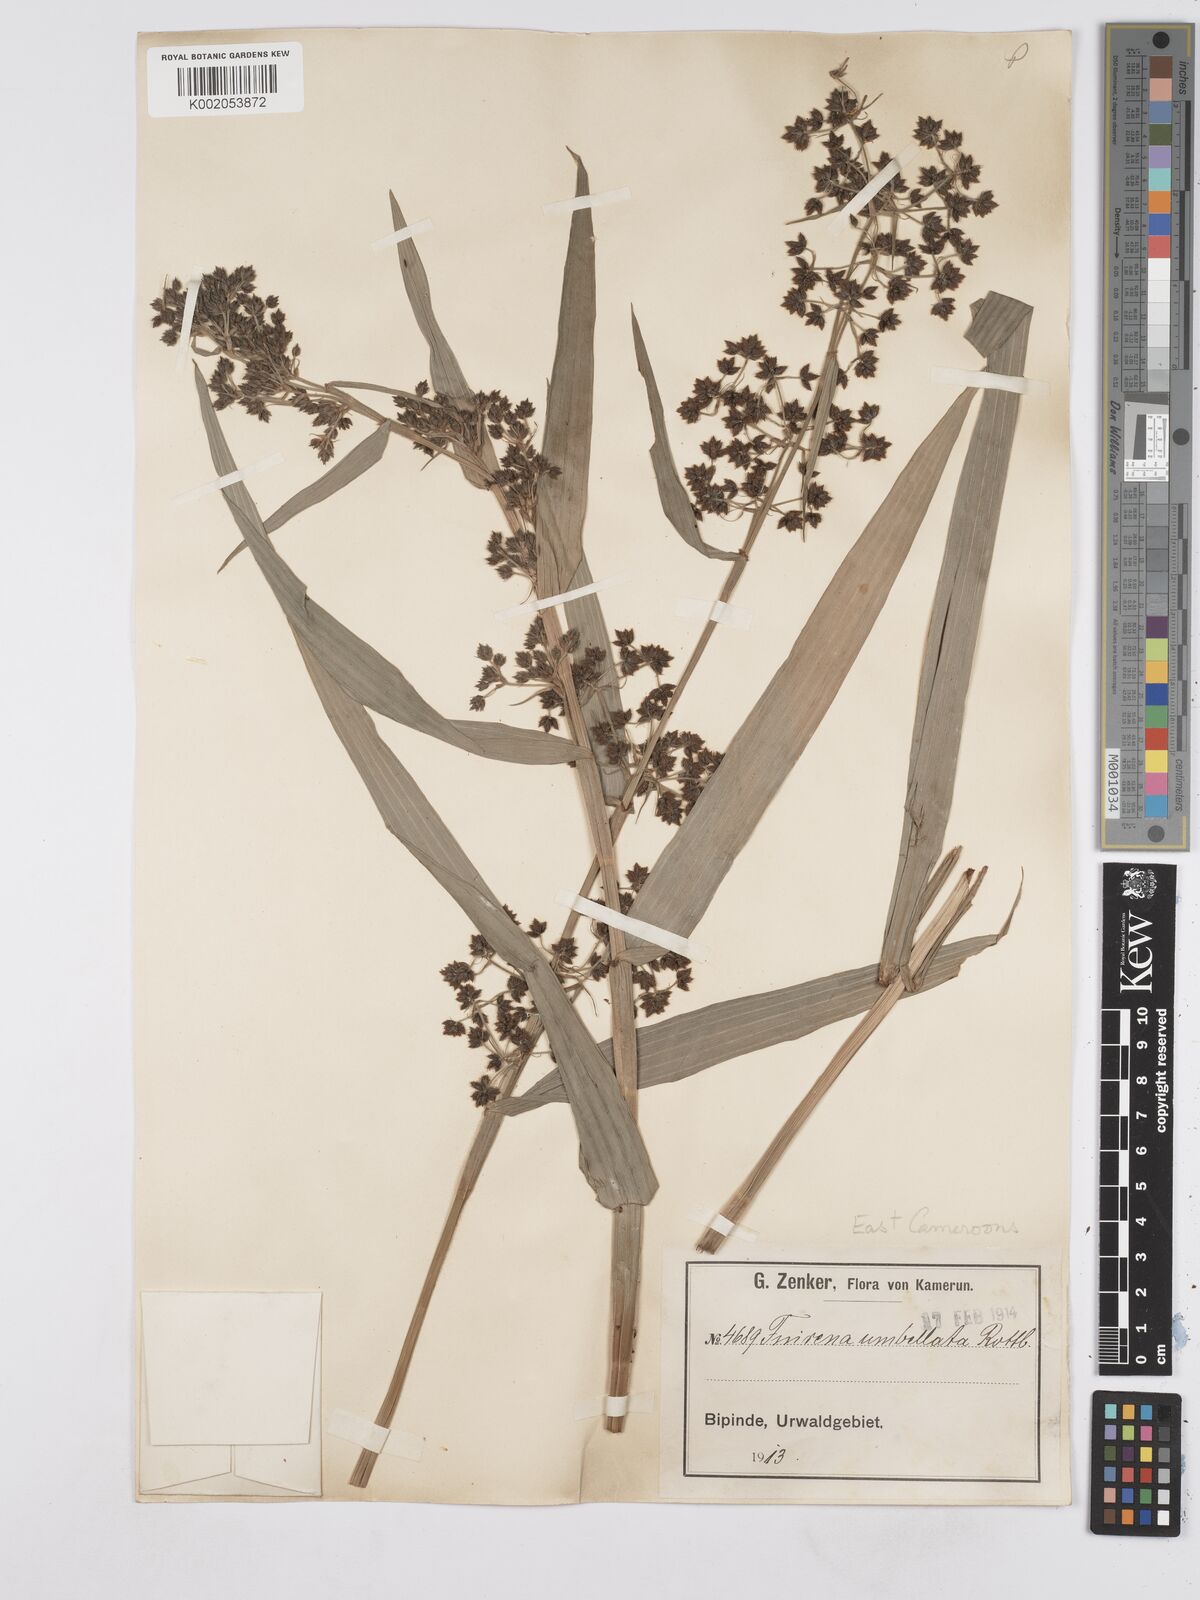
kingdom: Plantae
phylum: Tracheophyta
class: Liliopsida
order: Poales
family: Cyperaceae
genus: Fuirena
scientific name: Fuirena umbellata
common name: Yefen
